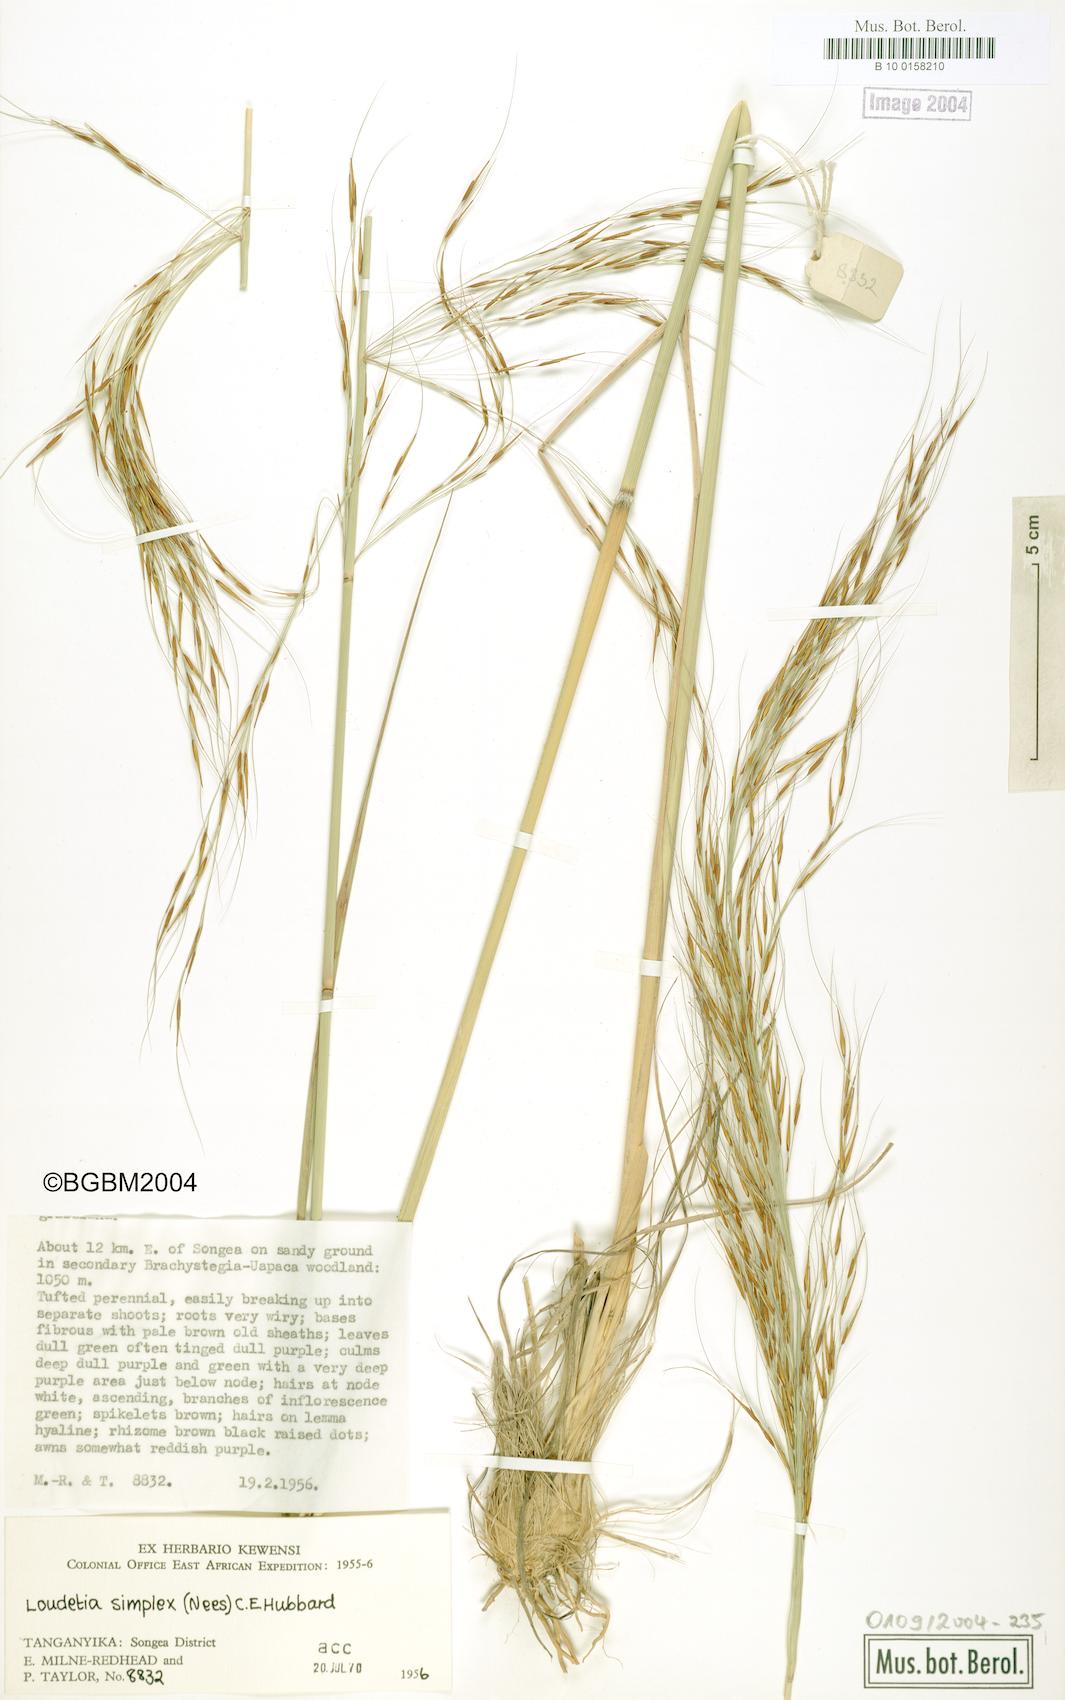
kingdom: Plantae
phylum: Tracheophyta
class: Liliopsida
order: Poales
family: Poaceae
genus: Loudetia
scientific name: Loudetia simplex
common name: Common russet grass
